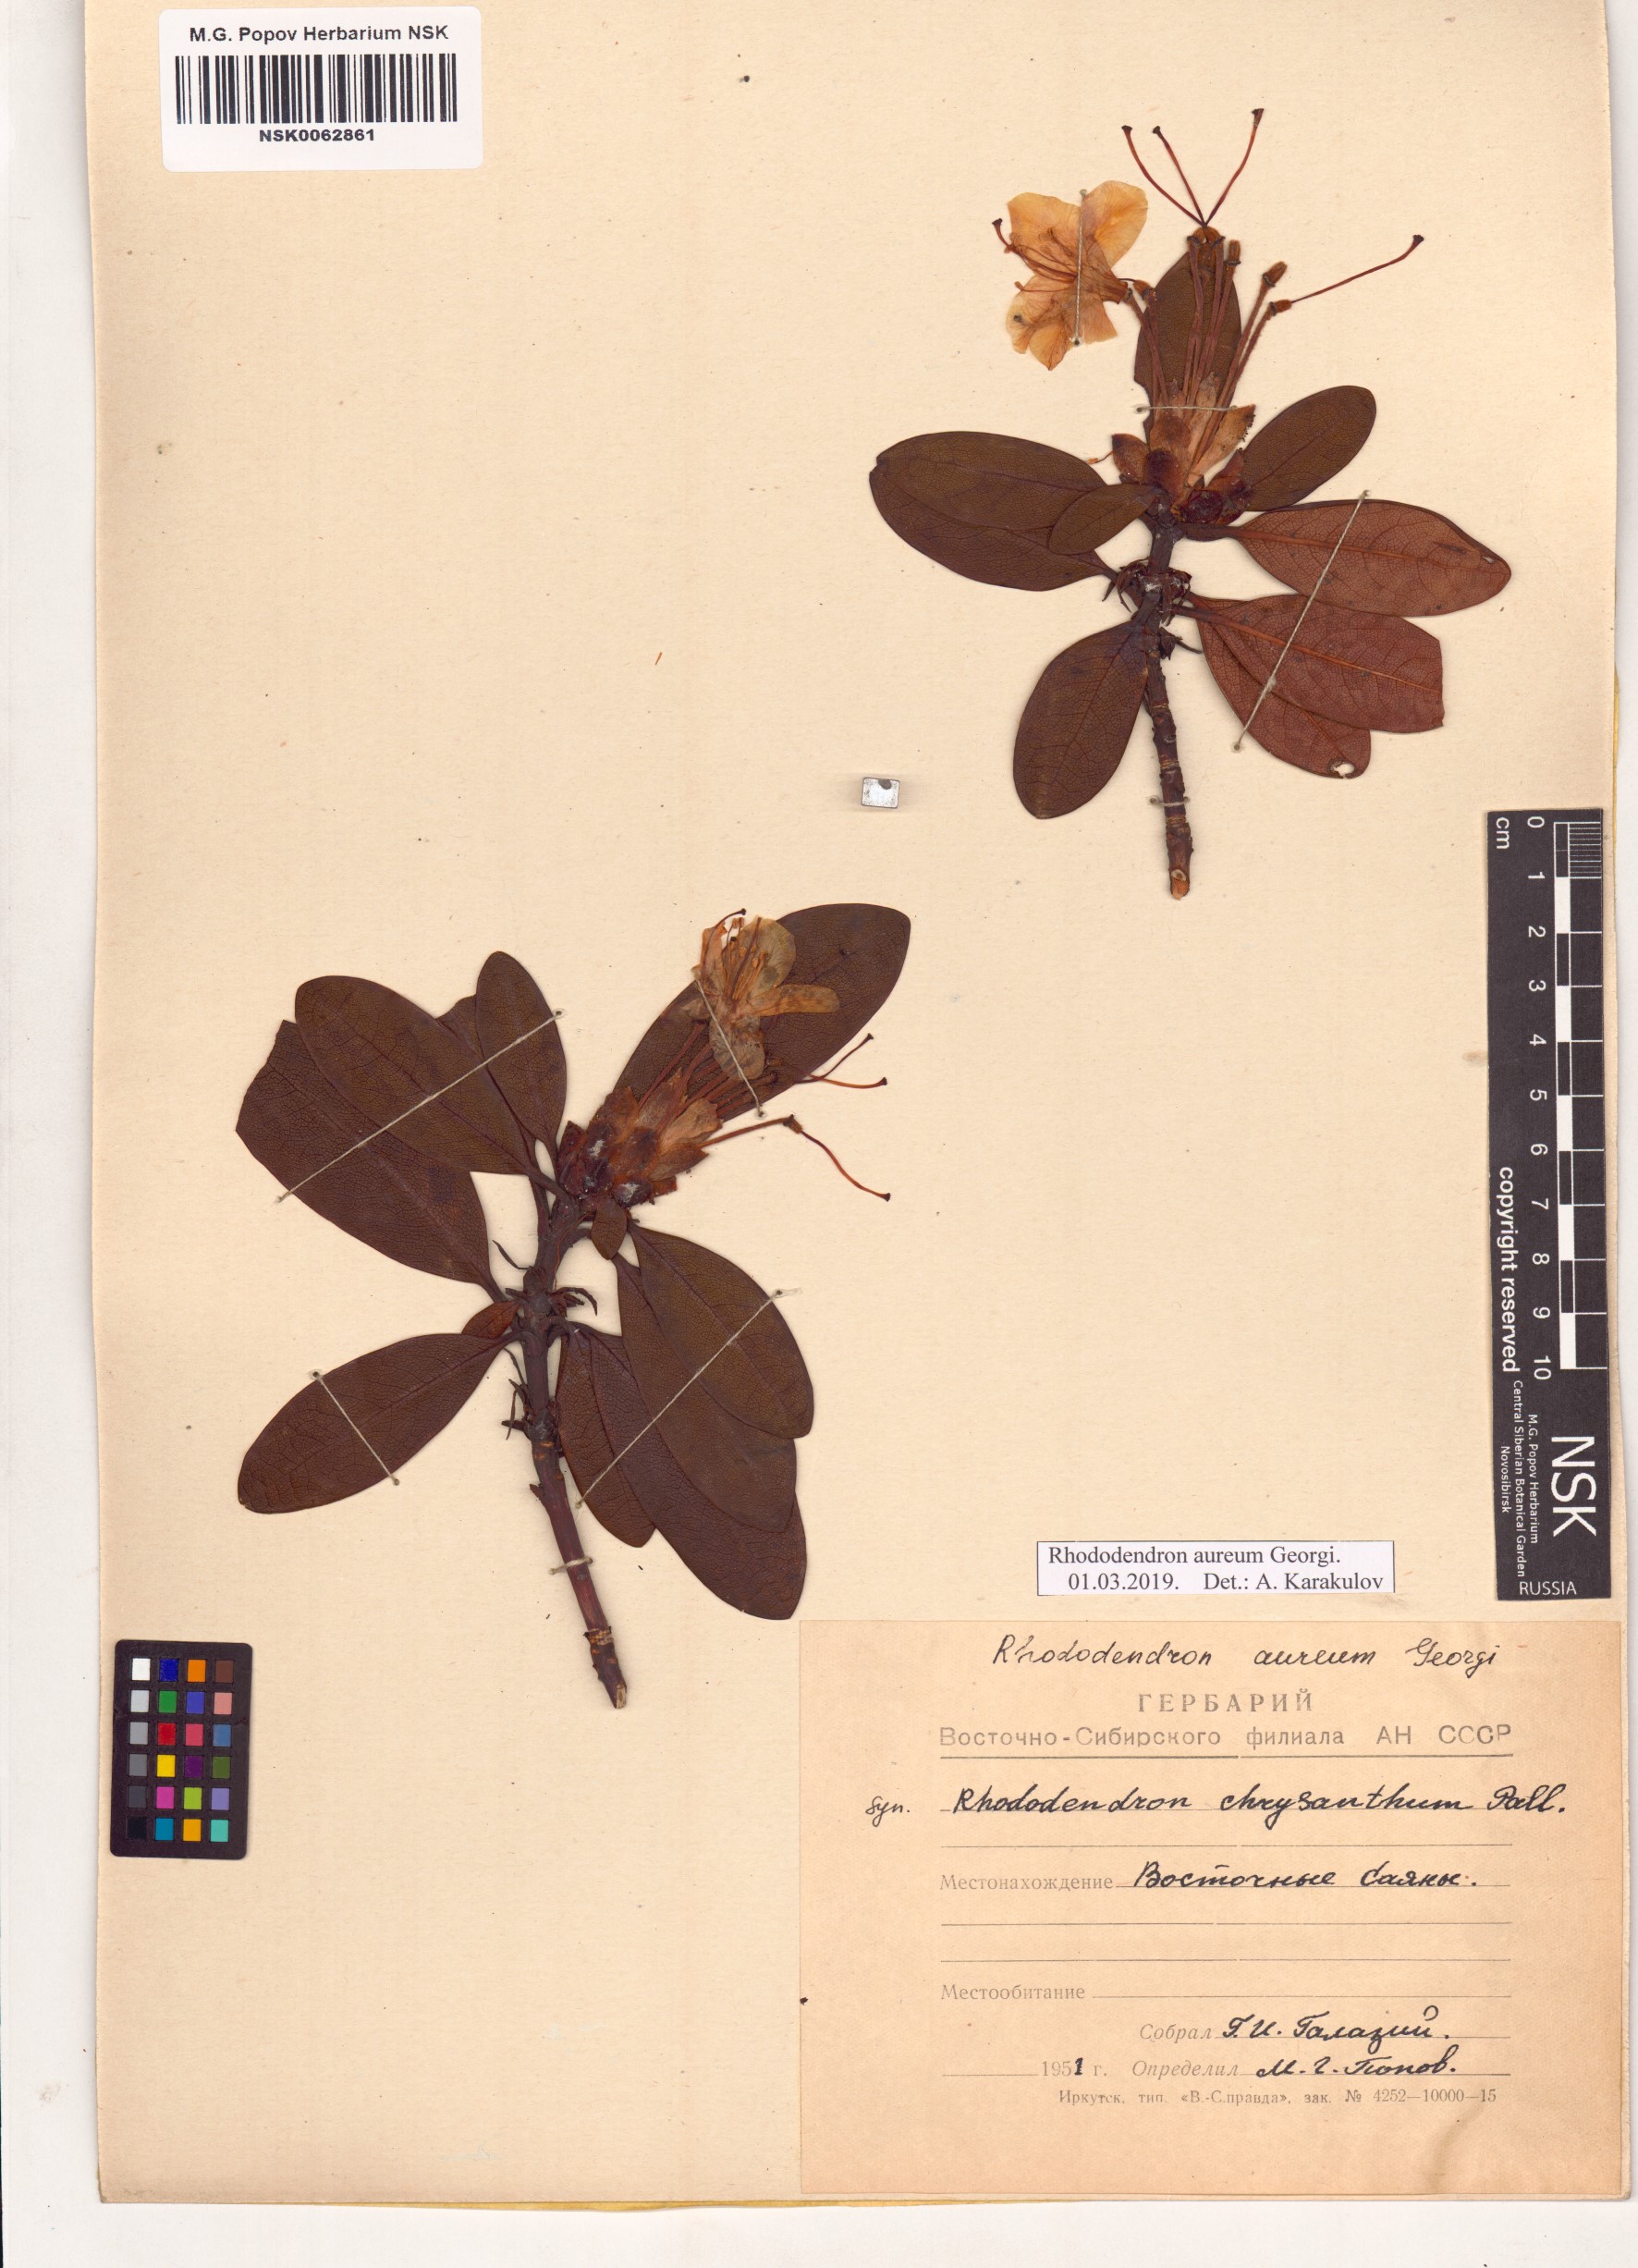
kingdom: Plantae
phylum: Tracheophyta
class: Magnoliopsida
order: Ericales
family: Ericaceae
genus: Rhododendron
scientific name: Rhododendron aureum
